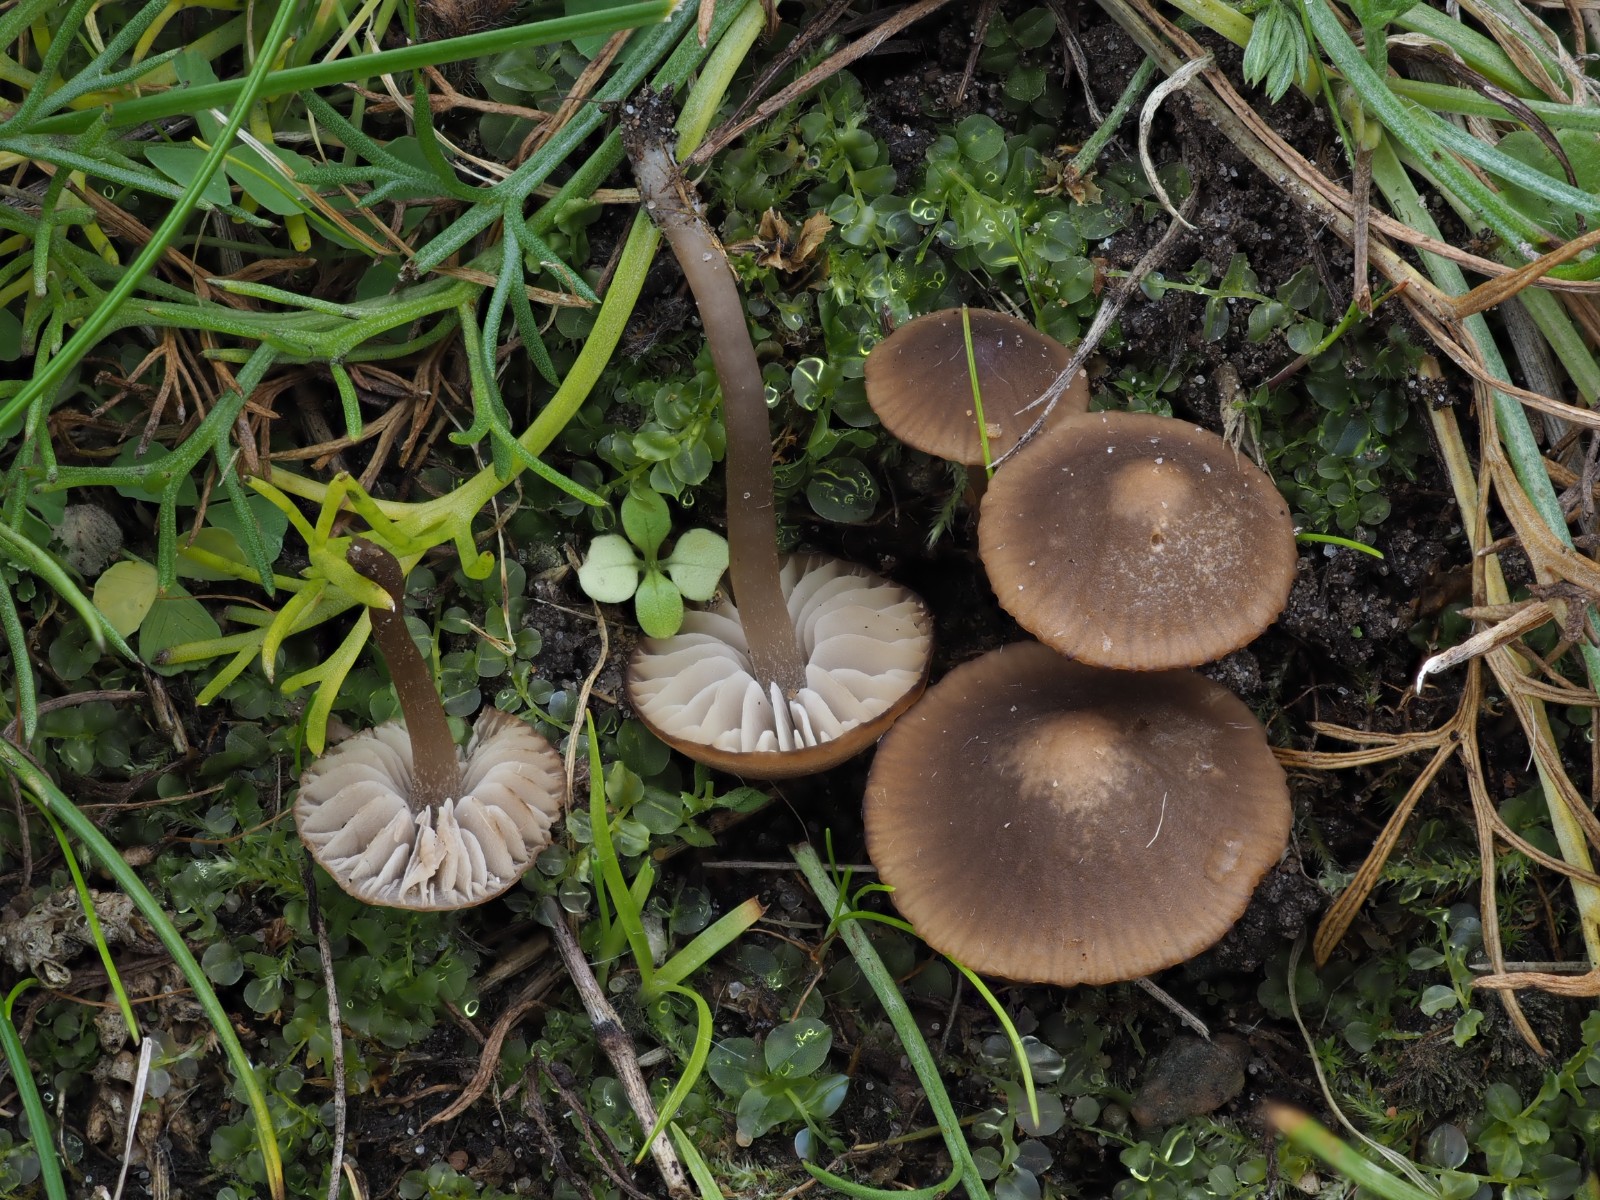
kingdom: Fungi
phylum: Basidiomycota
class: Agaricomycetes
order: Agaricales
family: Tricholomataceae
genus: Dermoloma
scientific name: Dermoloma pseudocuneifolium
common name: mark-nonnehat
